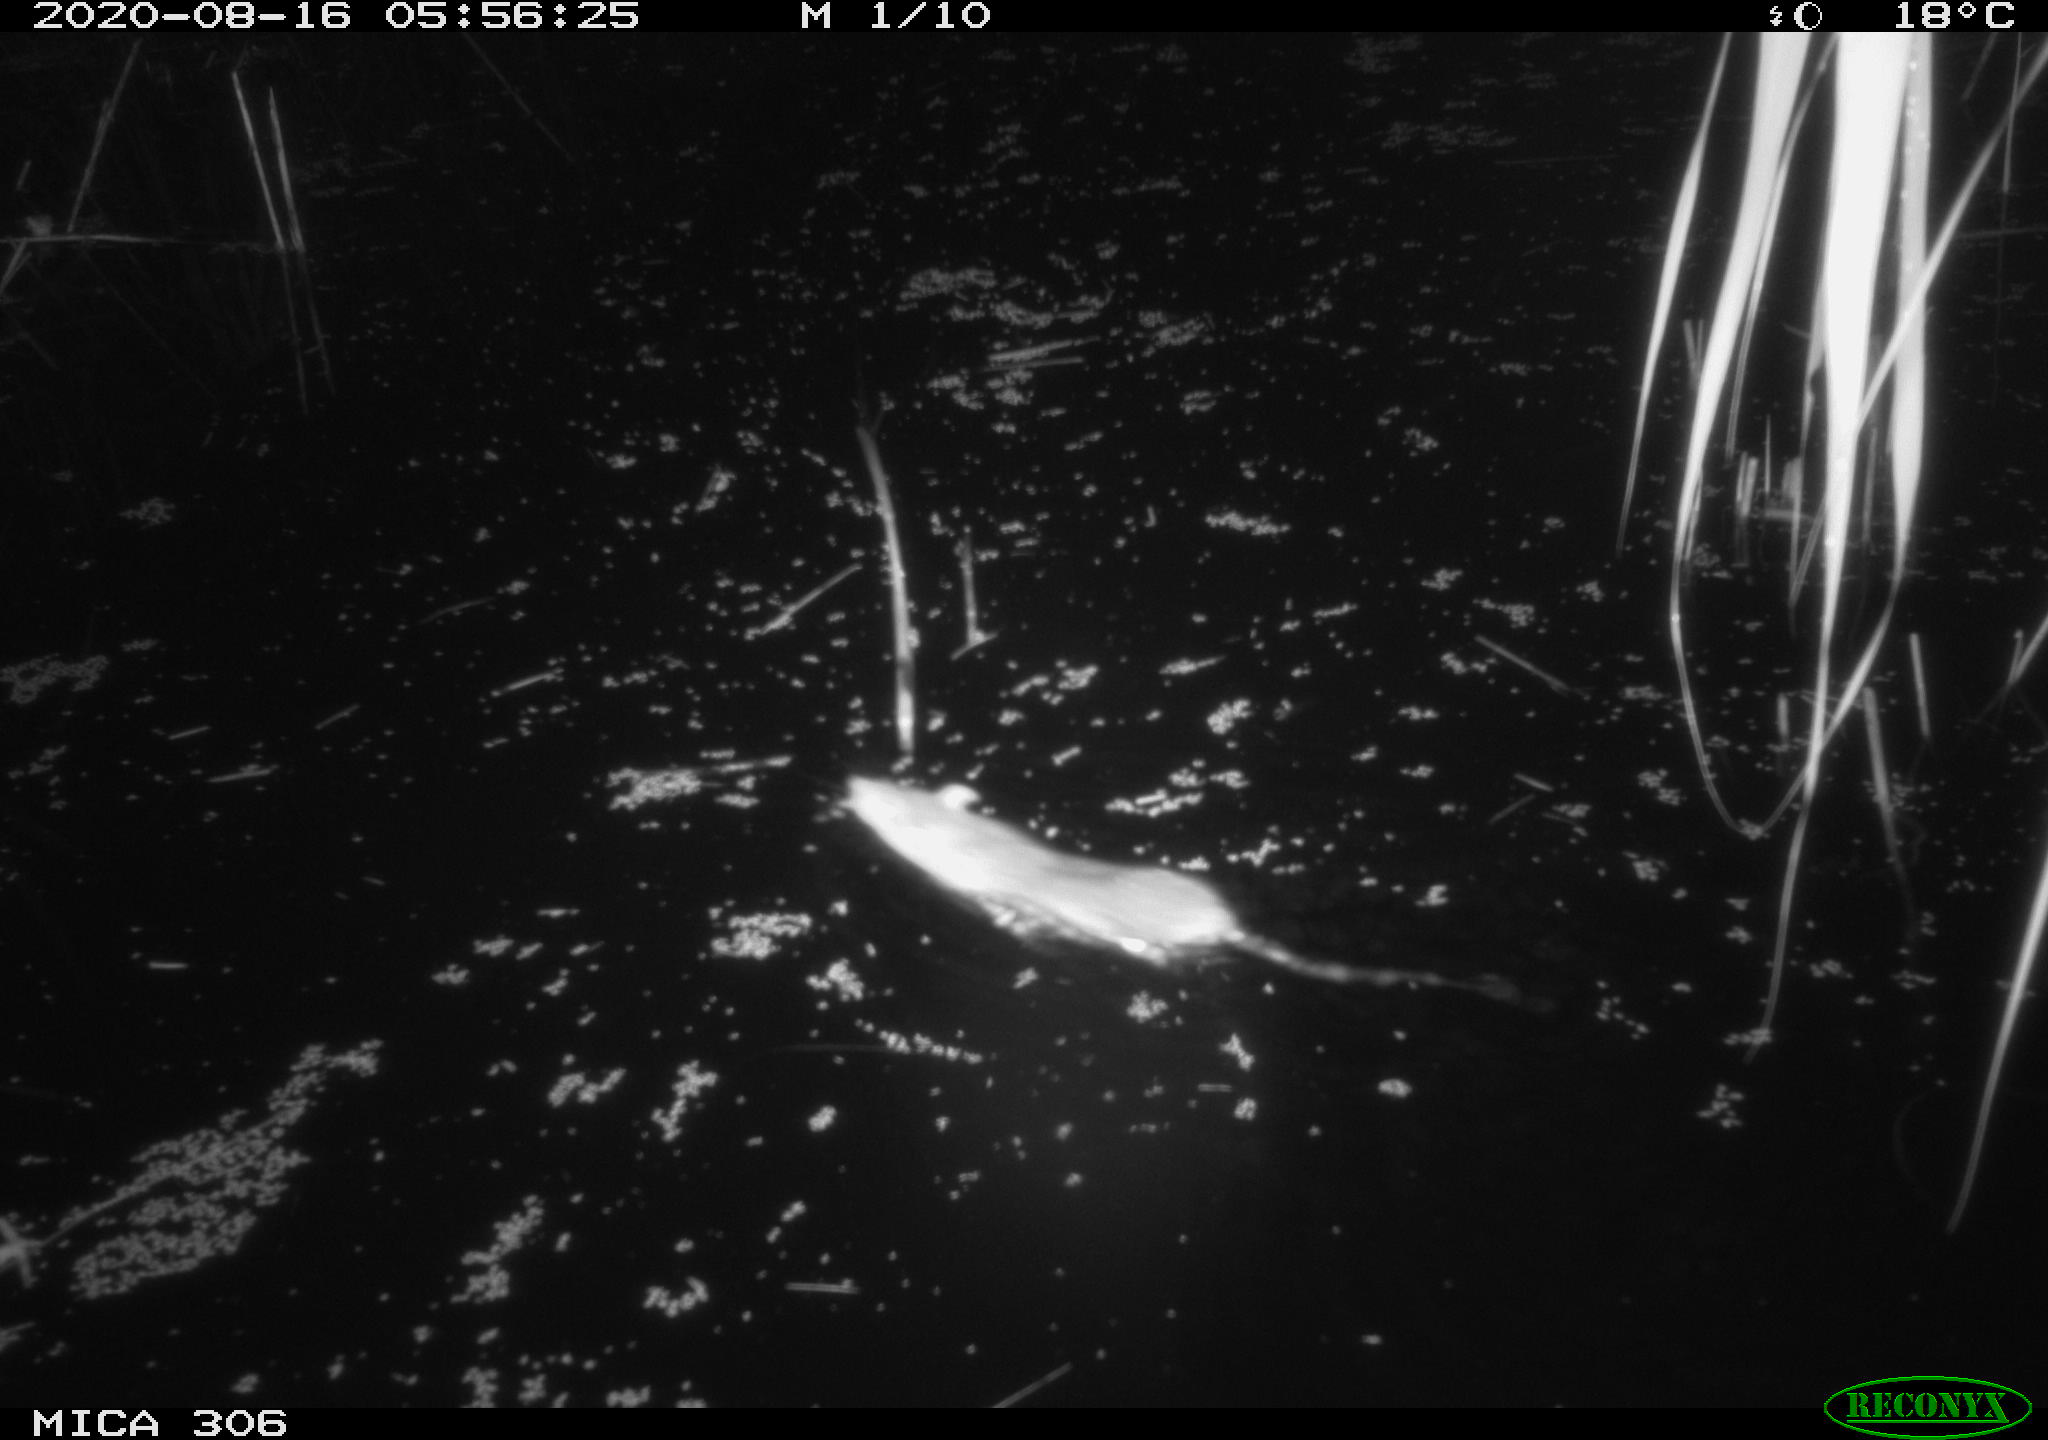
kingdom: Animalia
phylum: Chordata
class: Mammalia
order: Rodentia
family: Muridae
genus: Rattus
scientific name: Rattus norvegicus
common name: Brown rat
